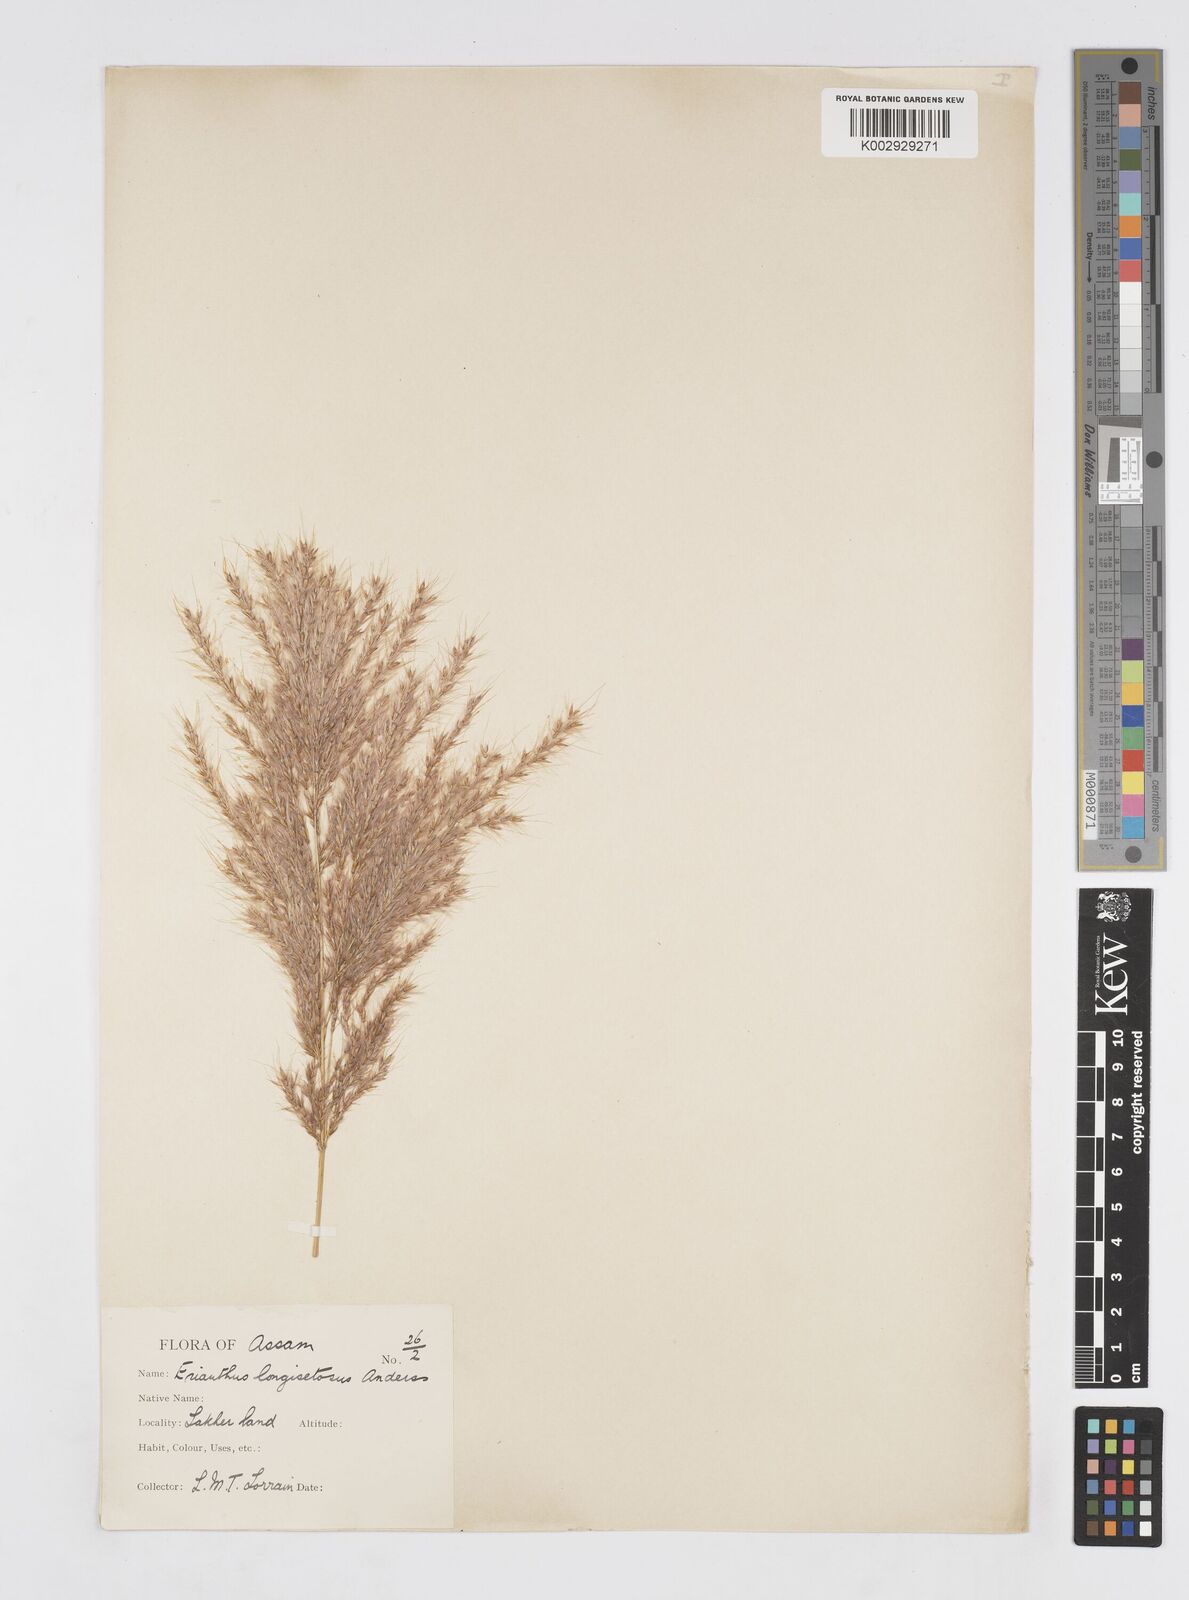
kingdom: Plantae
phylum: Tracheophyta
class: Liliopsida
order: Poales
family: Poaceae
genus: Saccharum
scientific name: Saccharum longesetosum
